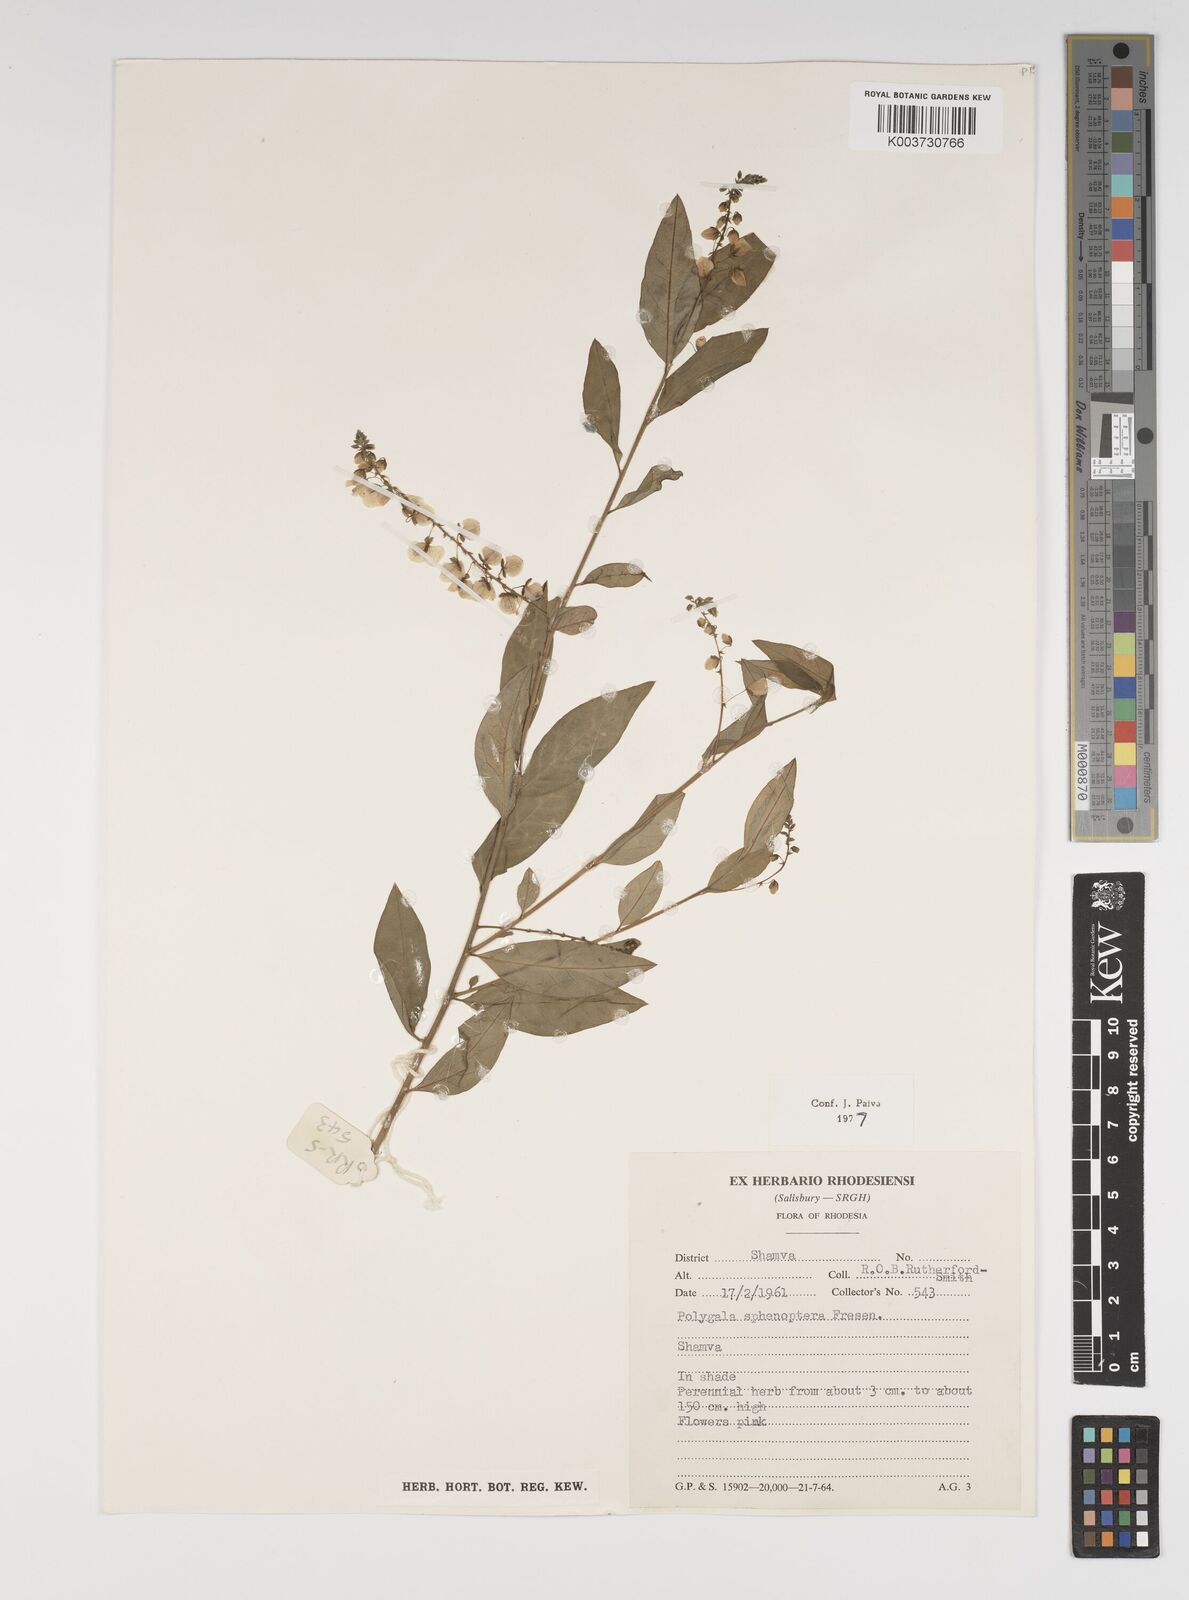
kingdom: Plantae
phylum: Tracheophyta
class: Magnoliopsida
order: Fabales
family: Polygalaceae
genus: Polygala
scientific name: Polygala sphenoptera
